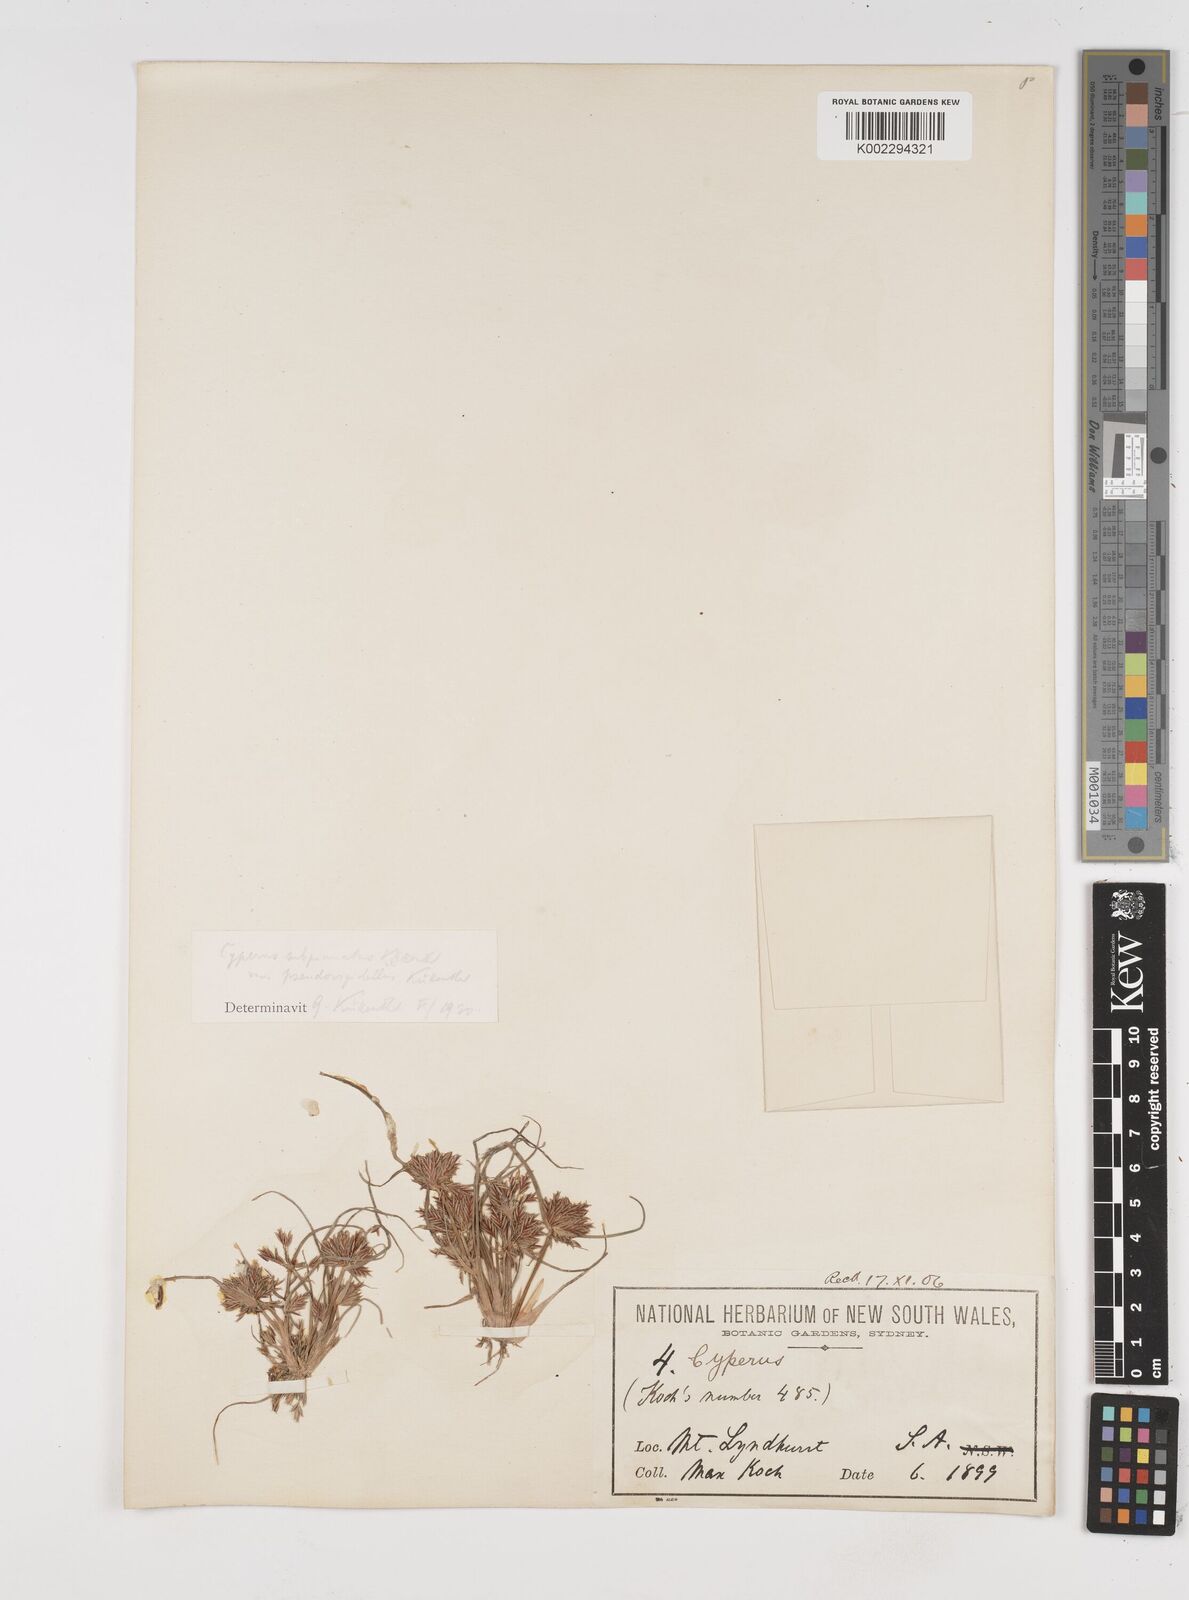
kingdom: Plantae
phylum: Tracheophyta
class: Liliopsida
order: Poales
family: Cyperaceae
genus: Cyperus
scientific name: Cyperus rigidellus
